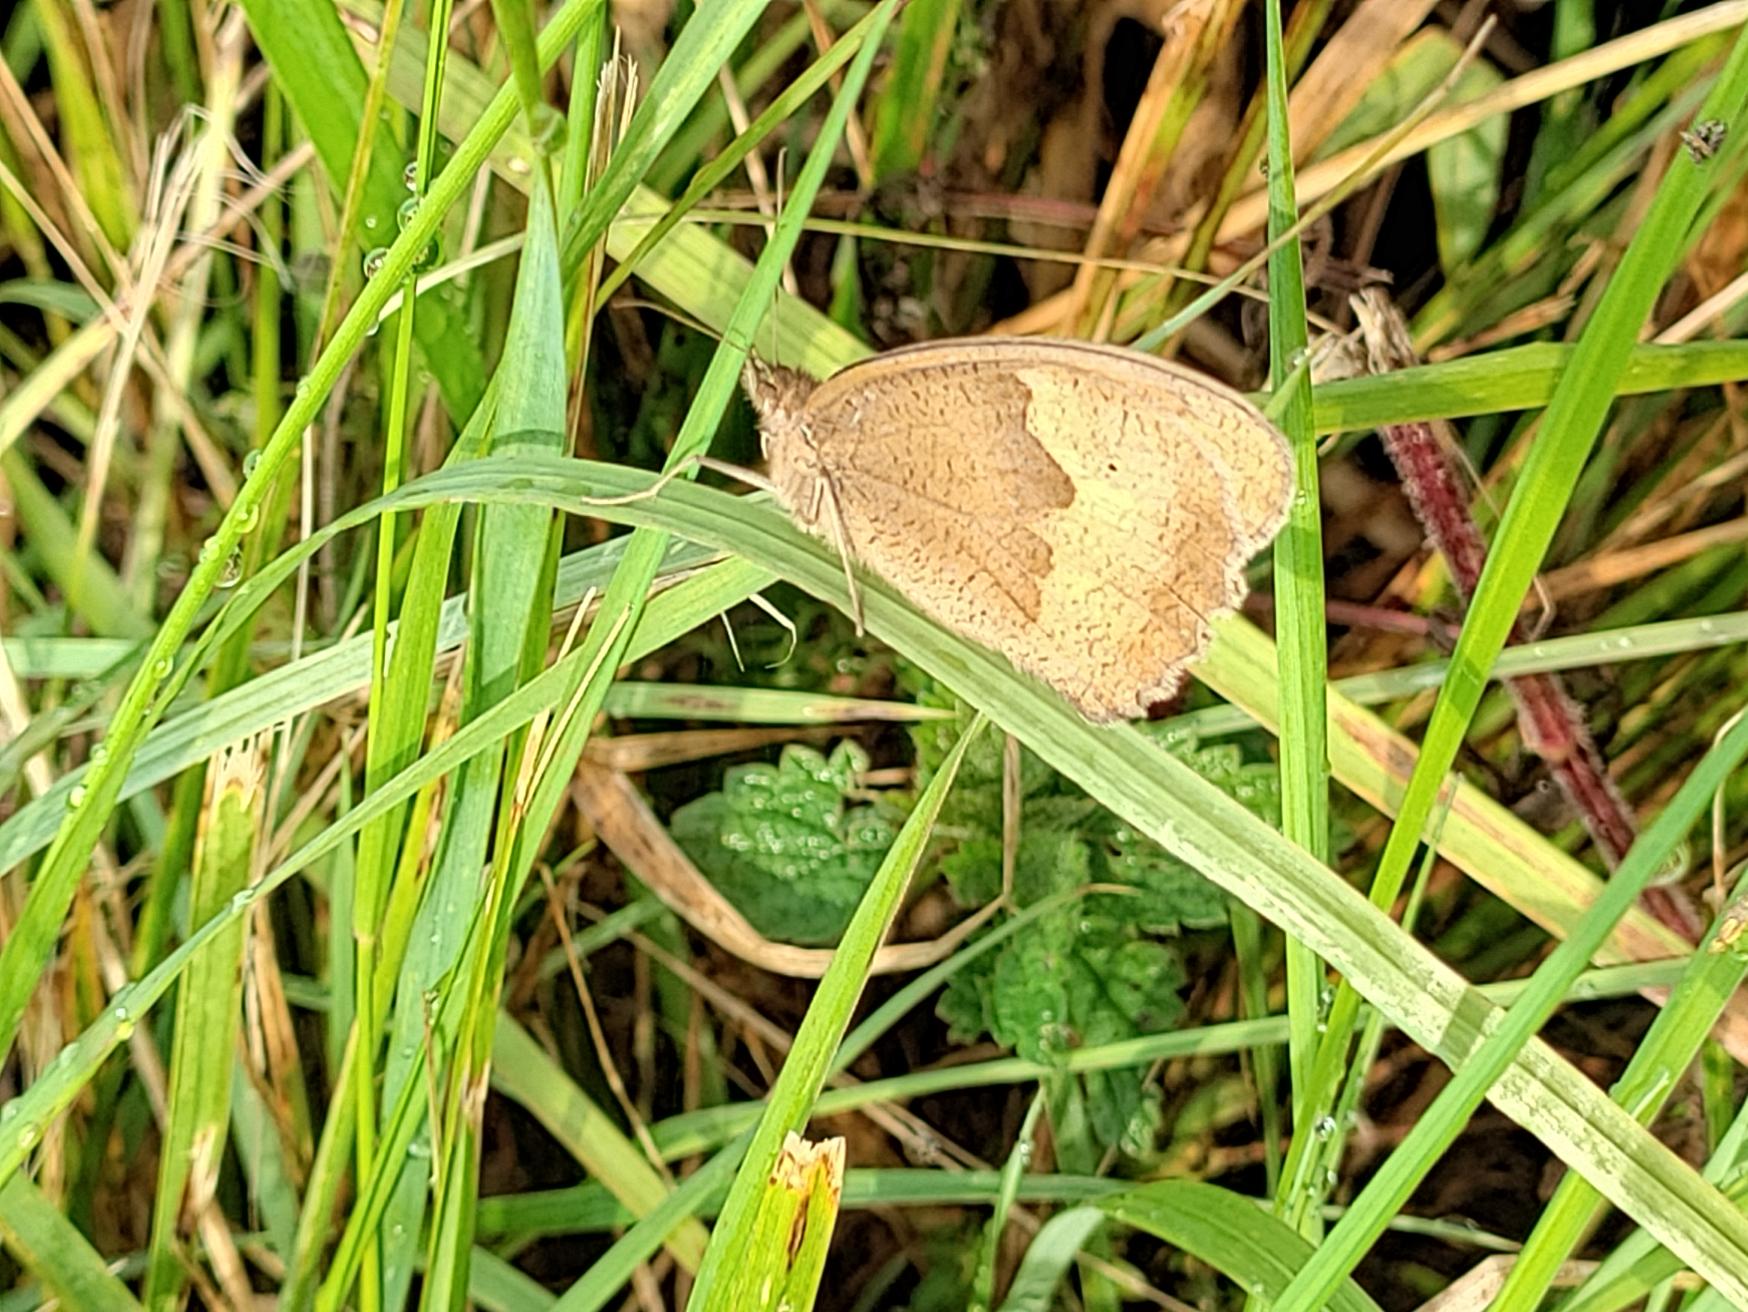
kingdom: Animalia
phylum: Arthropoda
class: Insecta
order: Lepidoptera
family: Nymphalidae
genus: Maniola
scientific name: Maniola jurtina
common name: Græsrandøje
